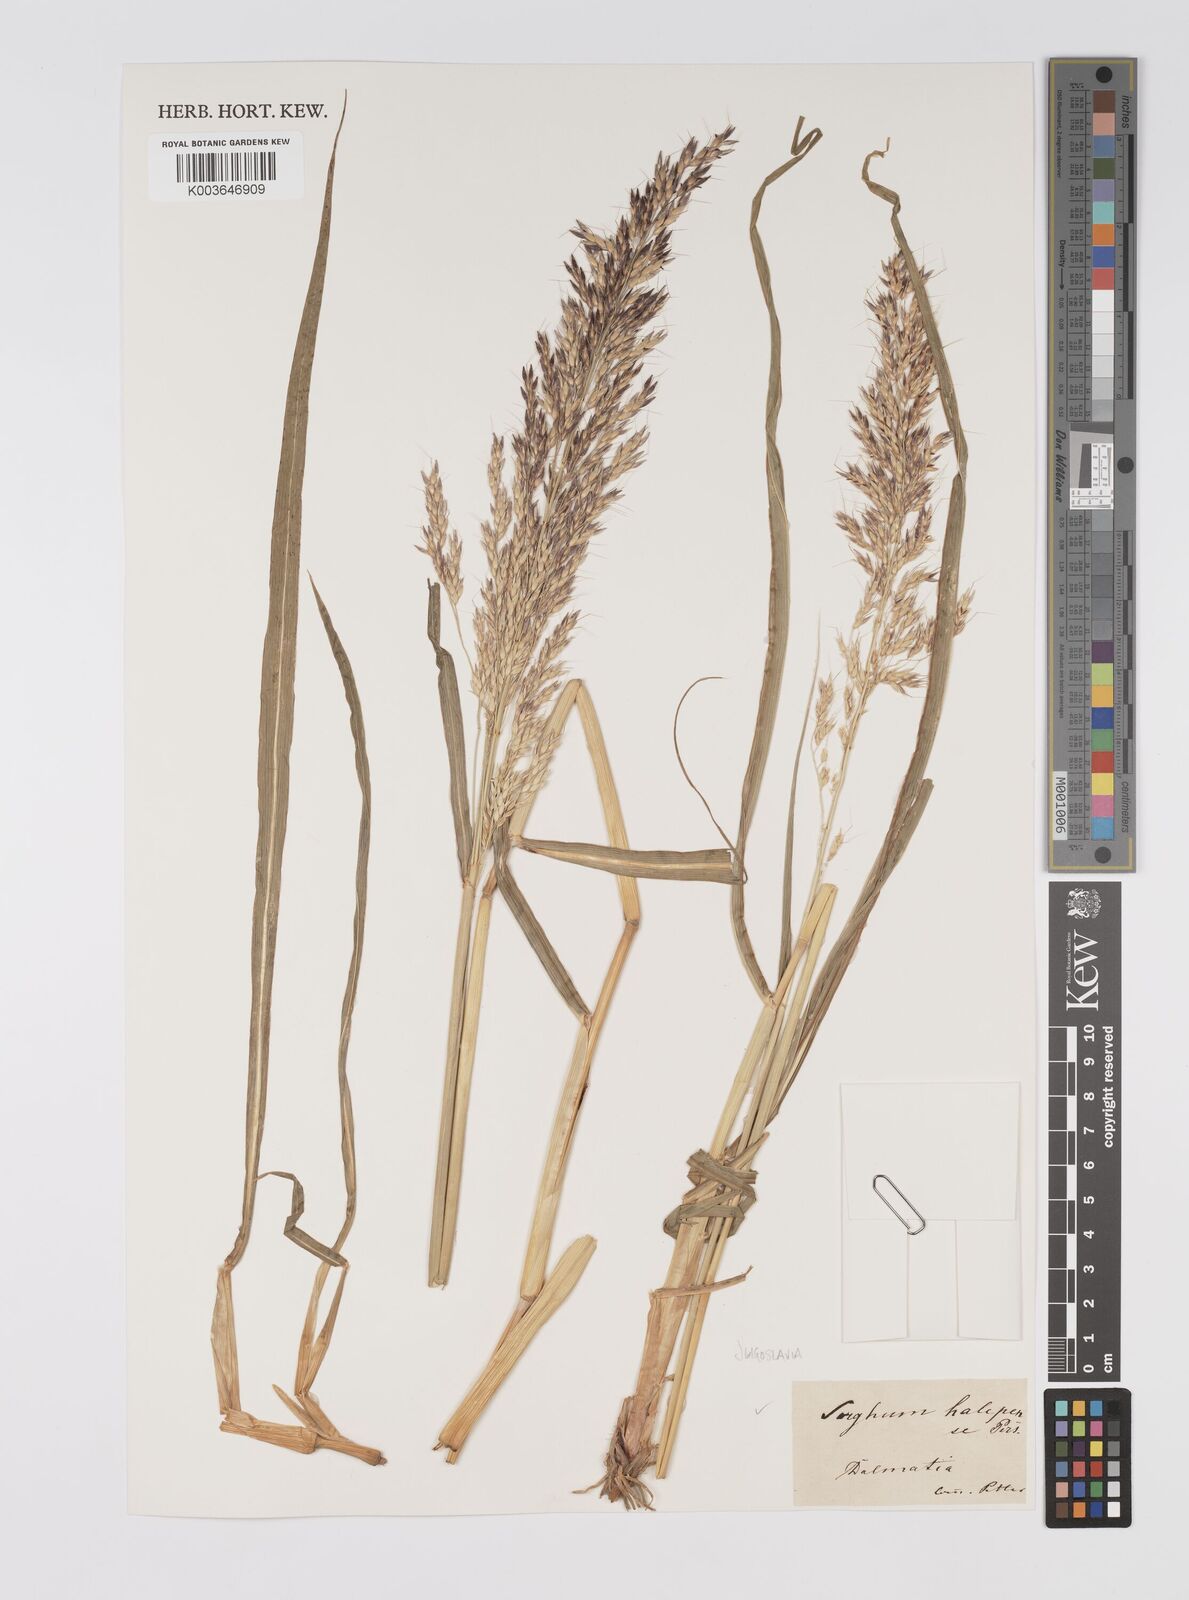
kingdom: Plantae
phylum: Tracheophyta
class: Liliopsida
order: Poales
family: Poaceae
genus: Sorghum
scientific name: Sorghum halepense
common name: Johnson-grass
